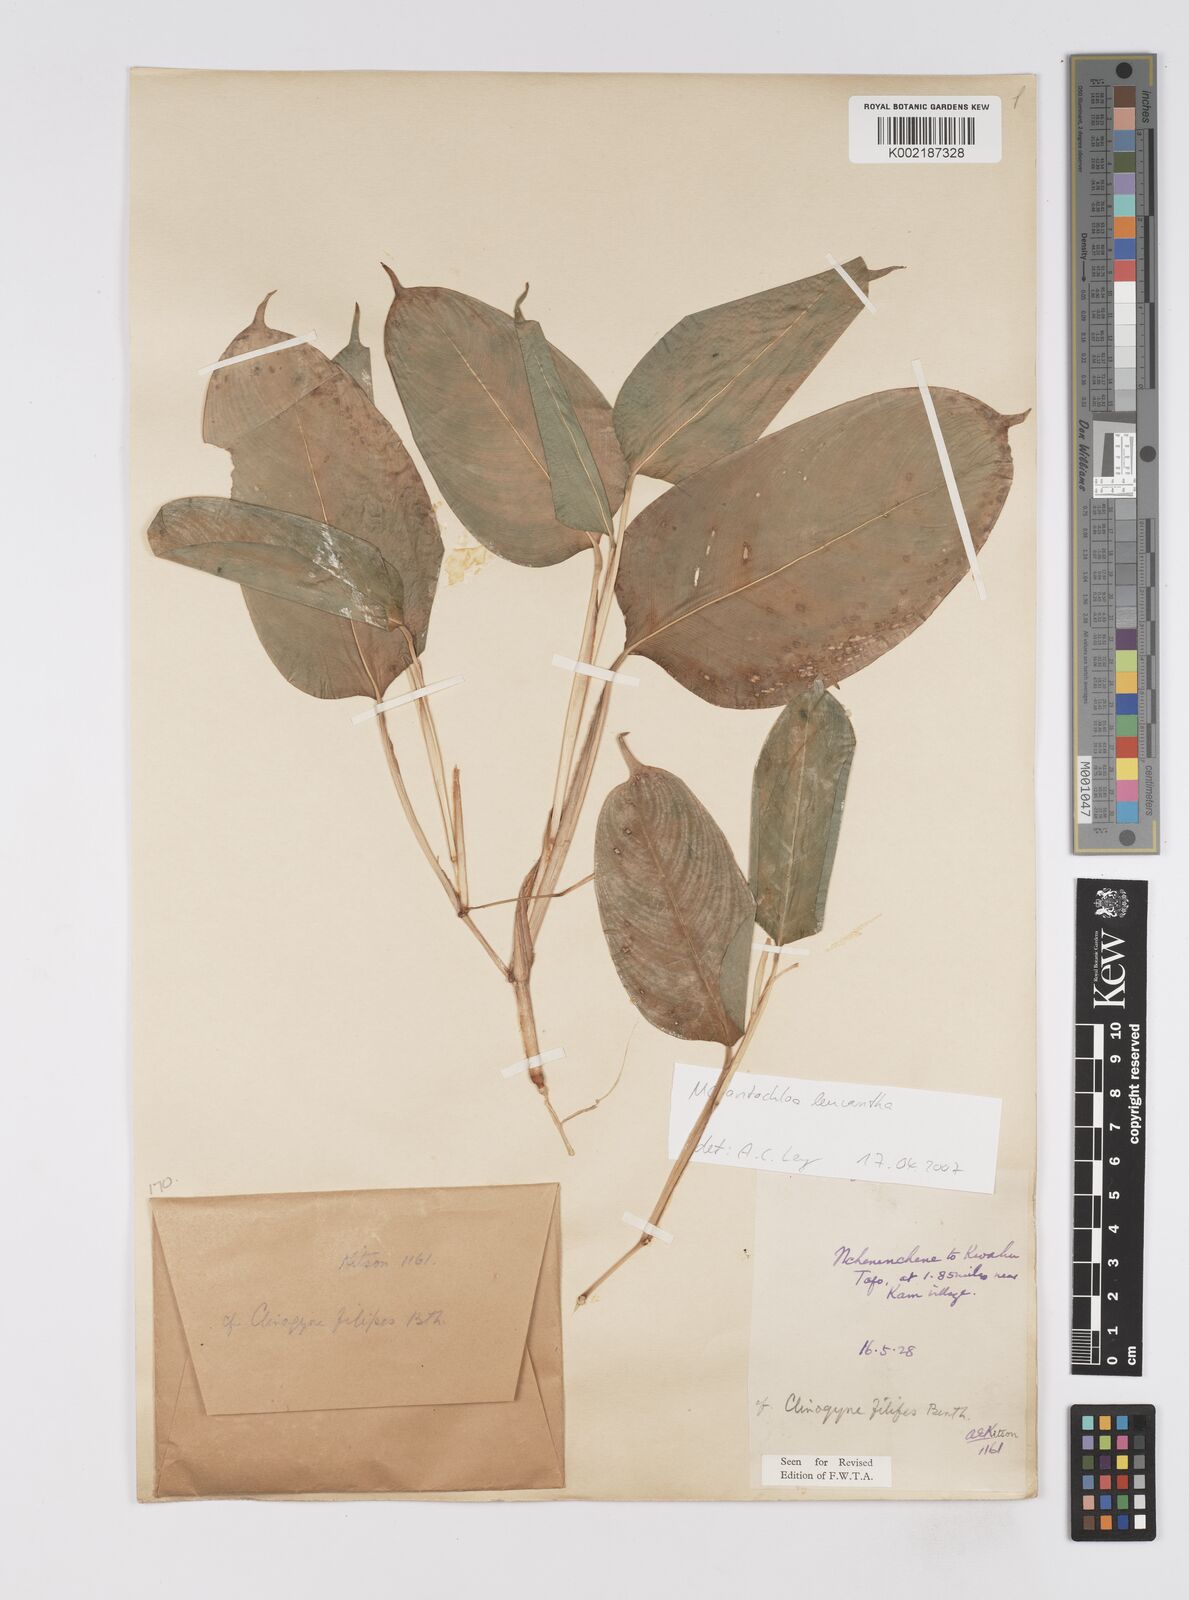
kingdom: Plantae
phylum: Tracheophyta
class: Liliopsida
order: Zingiberales
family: Marantaceae
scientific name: Marantaceae
